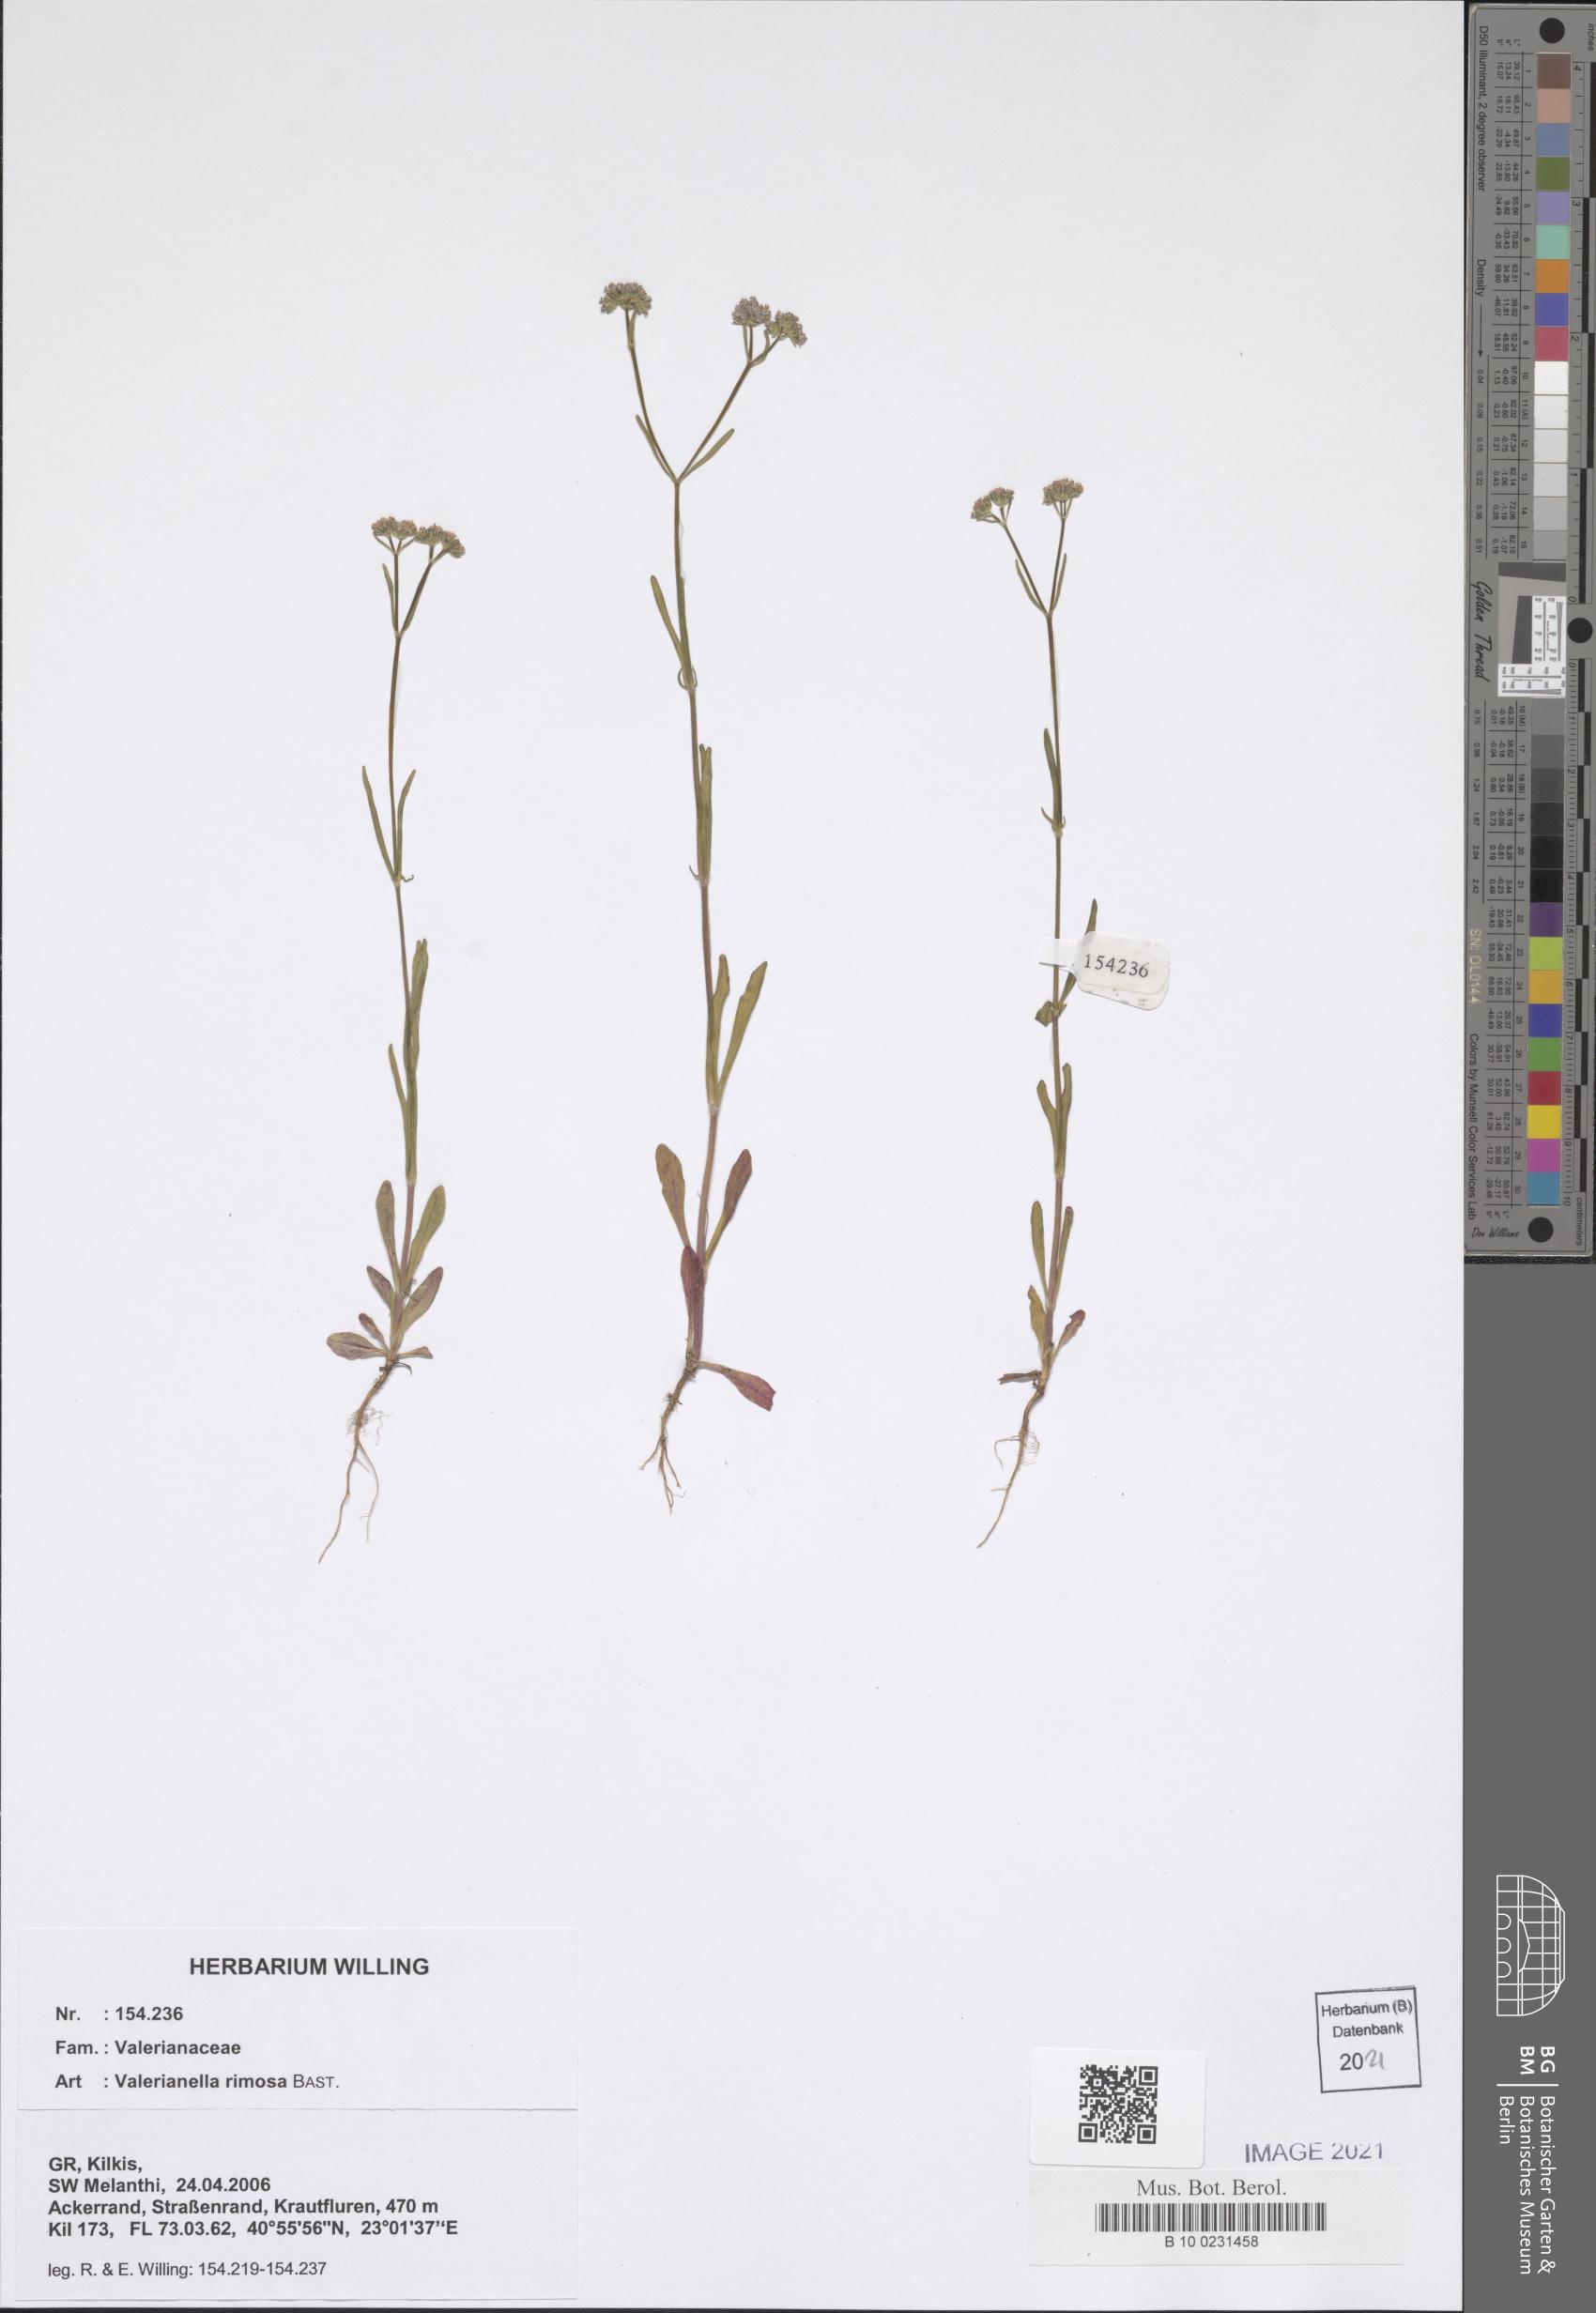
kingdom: Plantae
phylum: Tracheophyta
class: Magnoliopsida
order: Dipsacales
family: Caprifoliaceae
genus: Valerianella
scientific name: Valerianella rimosa
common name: Broad-fruited cornsalad
